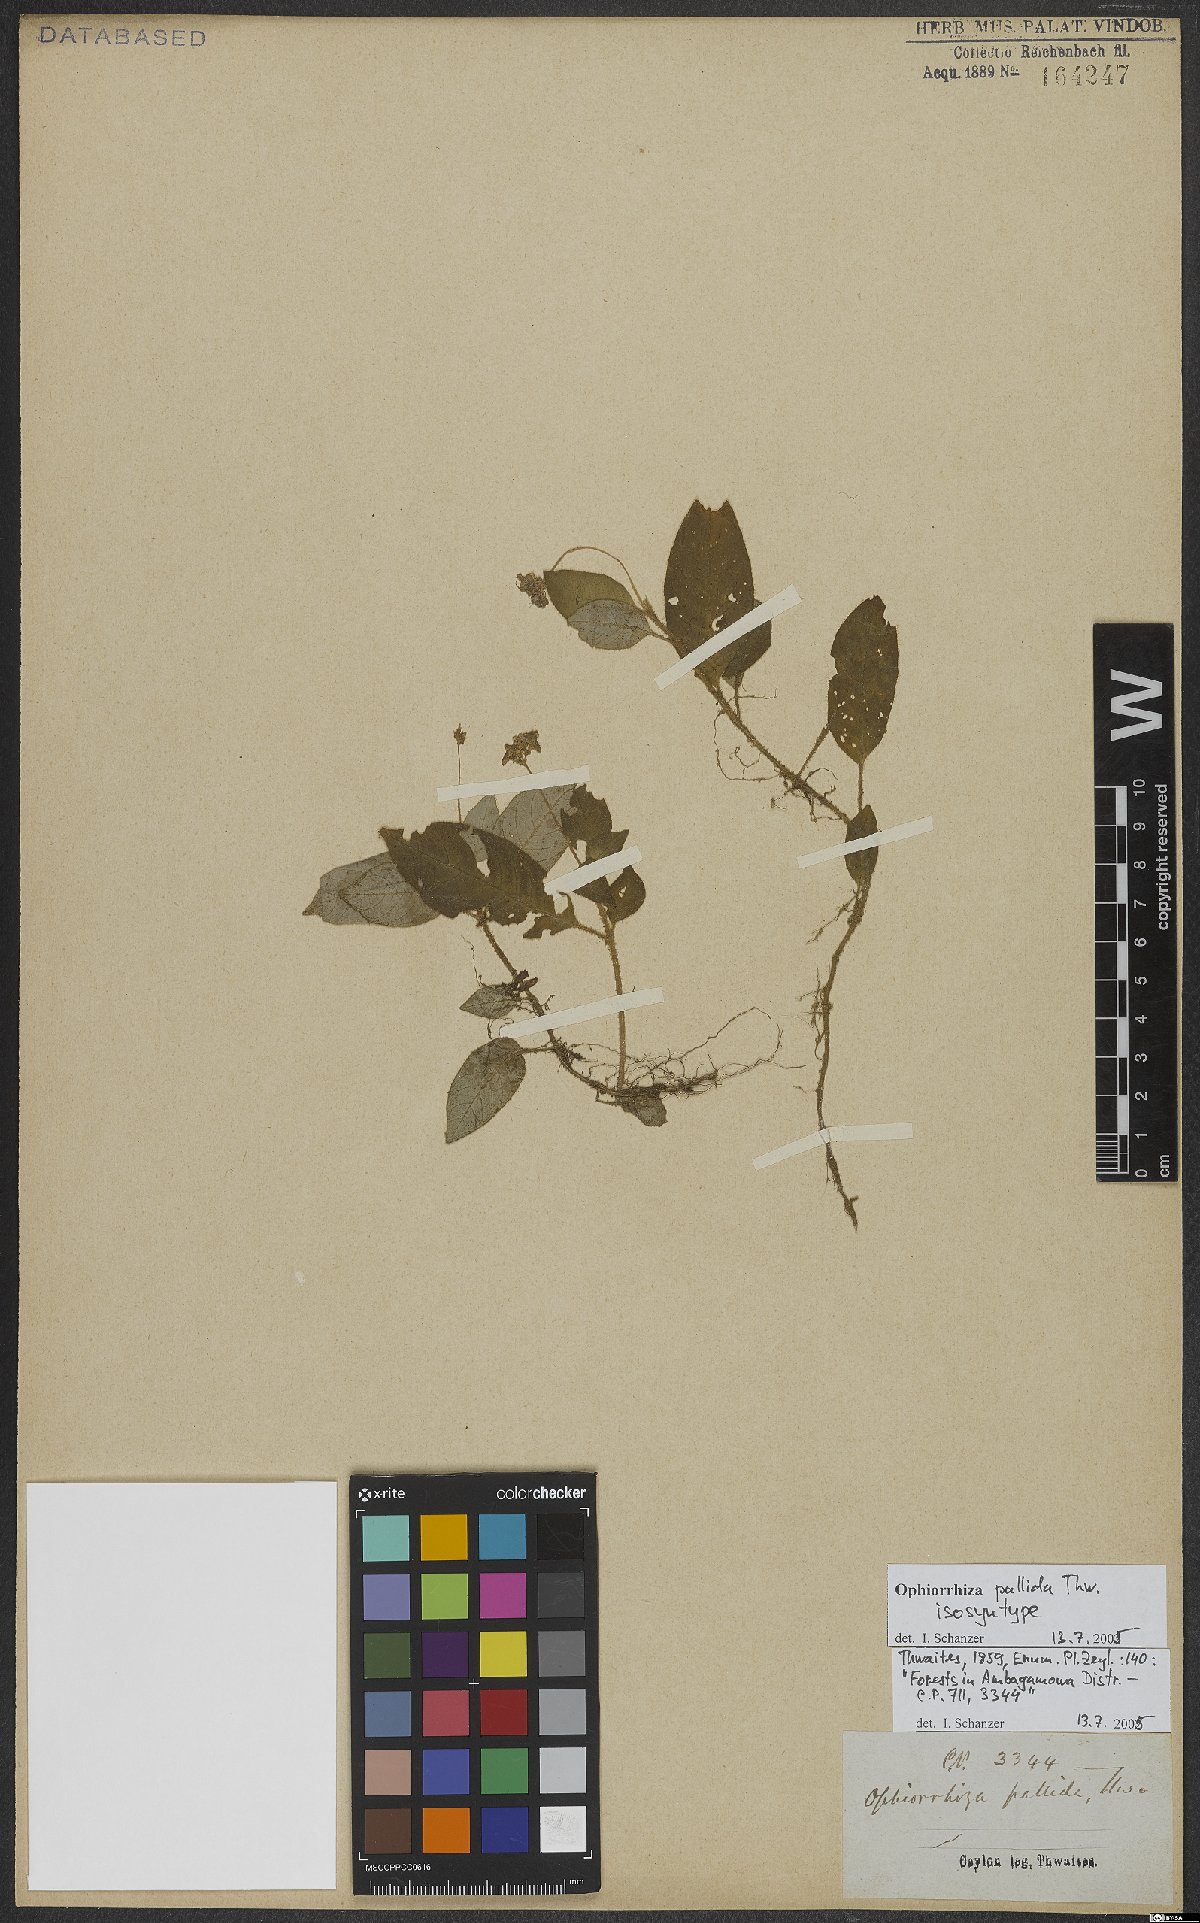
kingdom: Plantae
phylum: Tracheophyta
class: Magnoliopsida
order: Gentianales
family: Rubiaceae
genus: Ophiorrhiza
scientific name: Ophiorrhiza pallida
